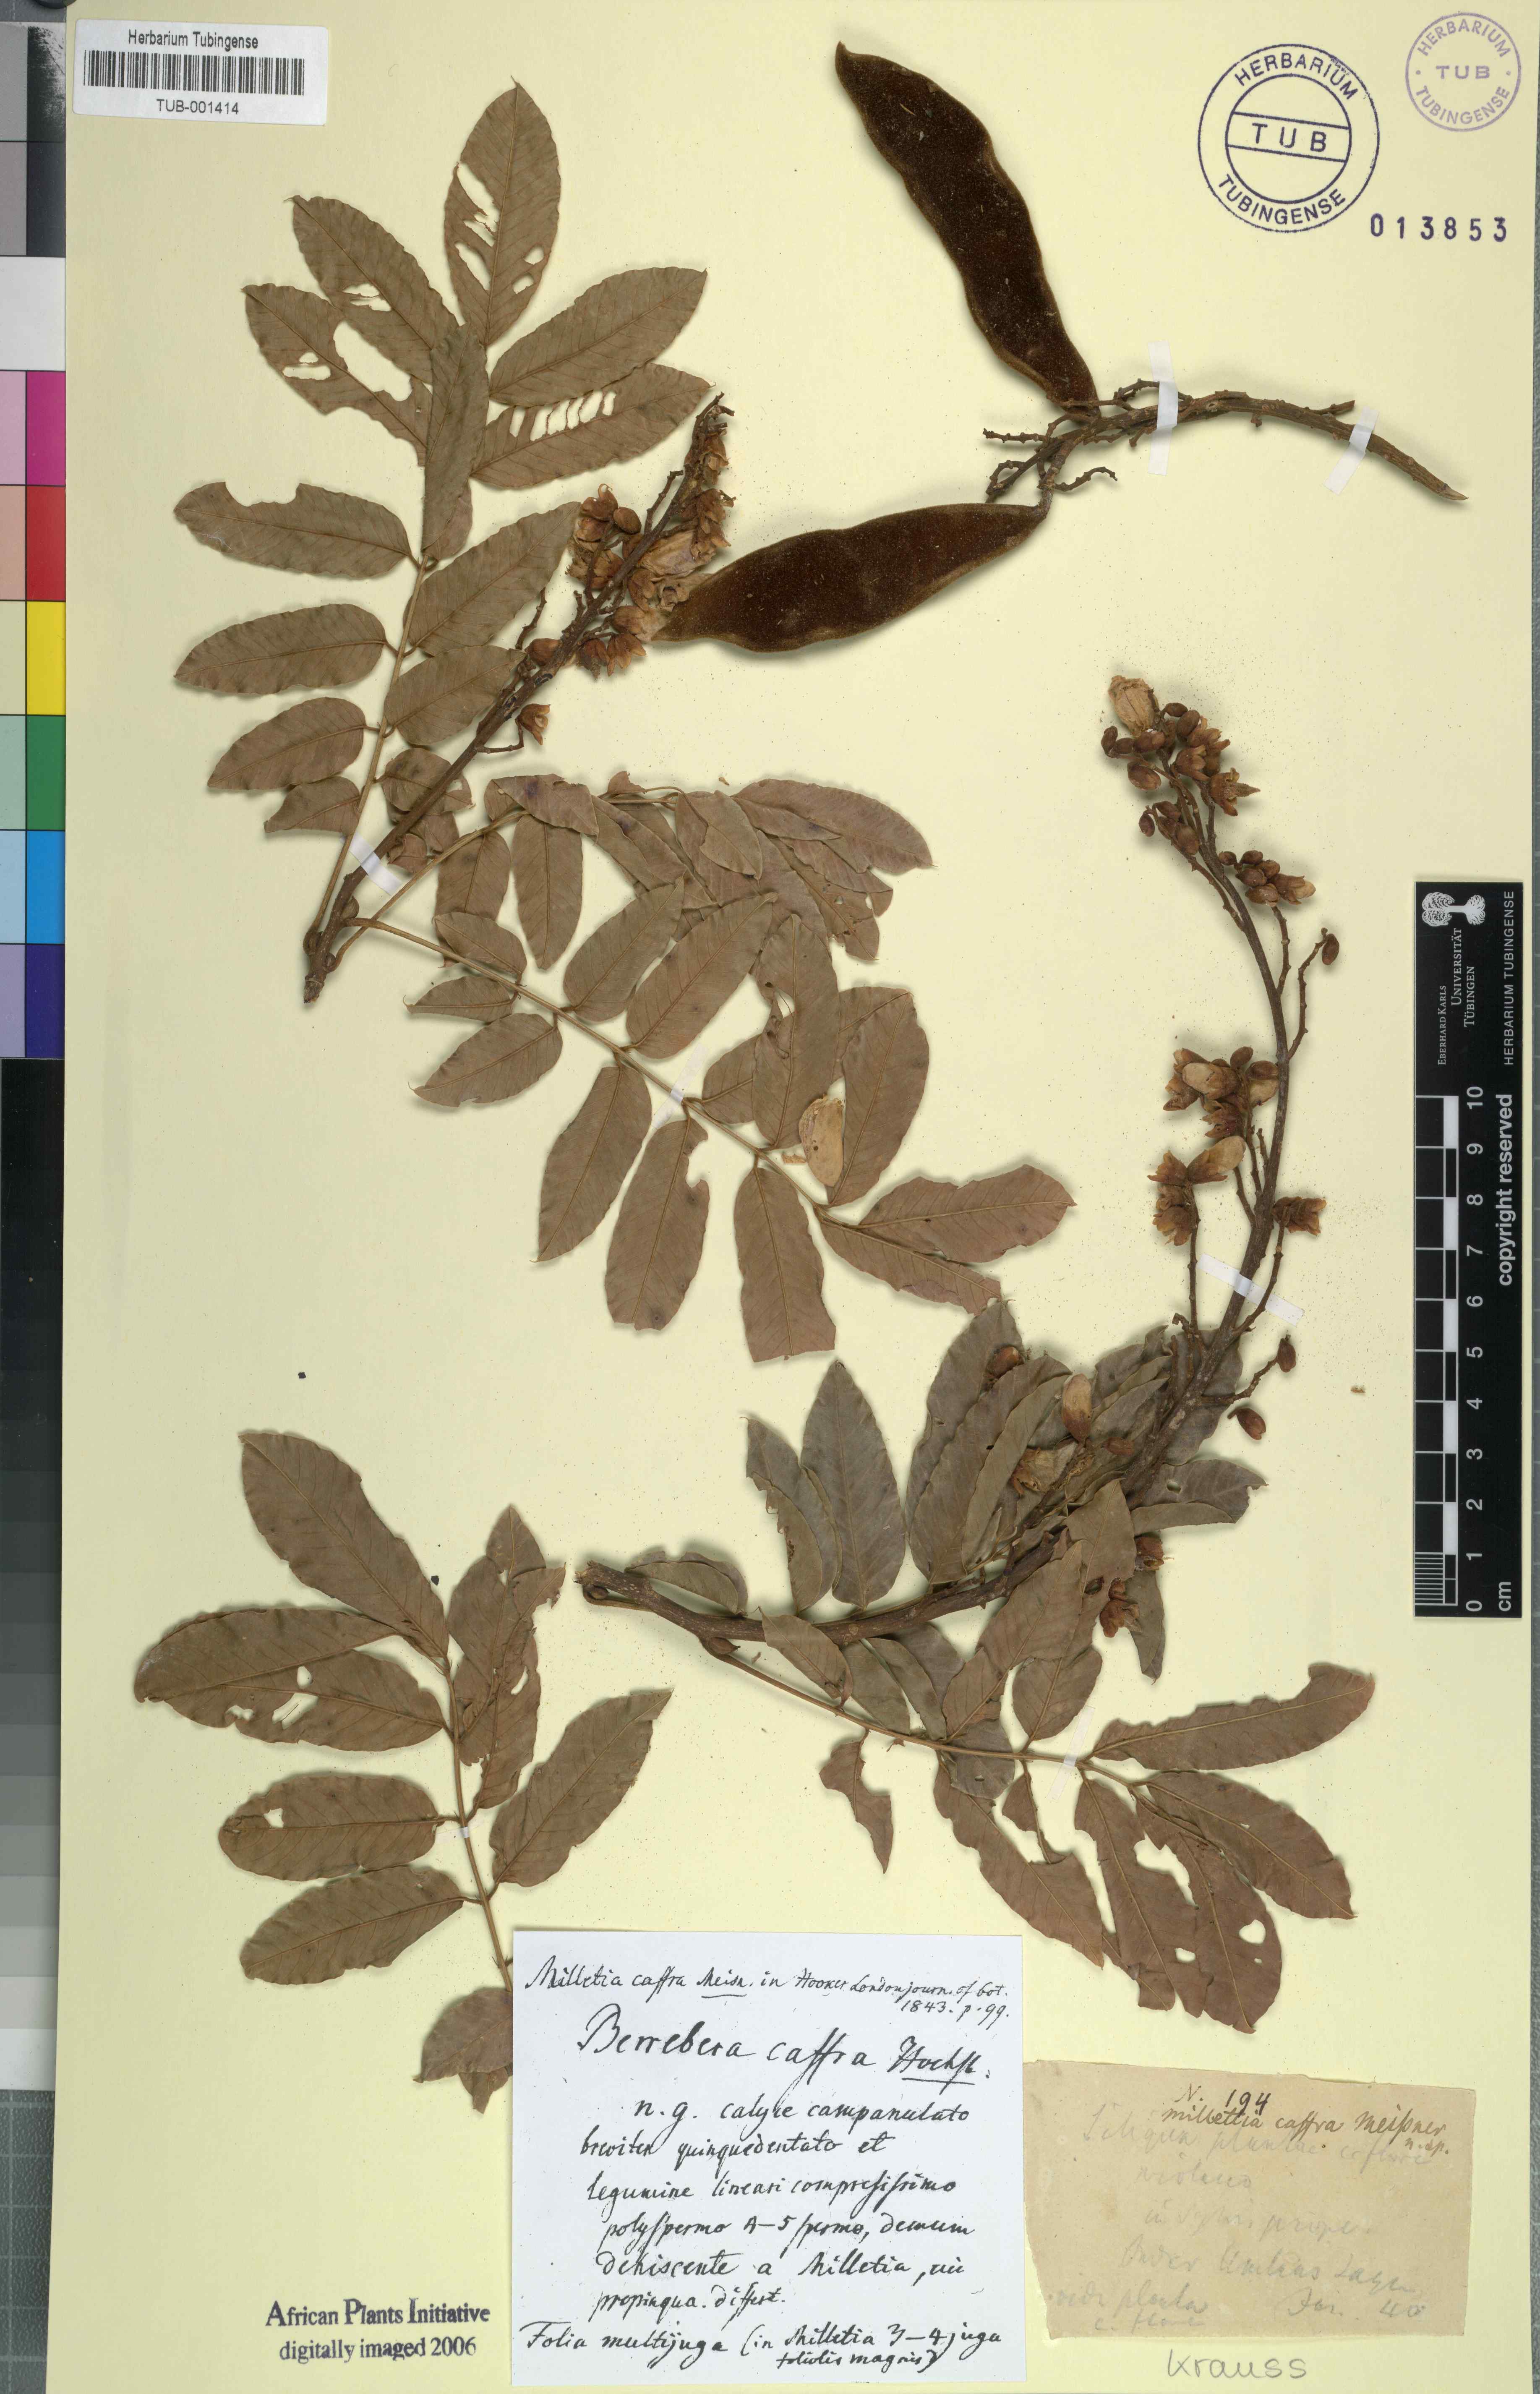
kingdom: Plantae
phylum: Tracheophyta
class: Magnoliopsida
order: Fabales
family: Fabaceae
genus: Millettia
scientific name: Millettia grandis
